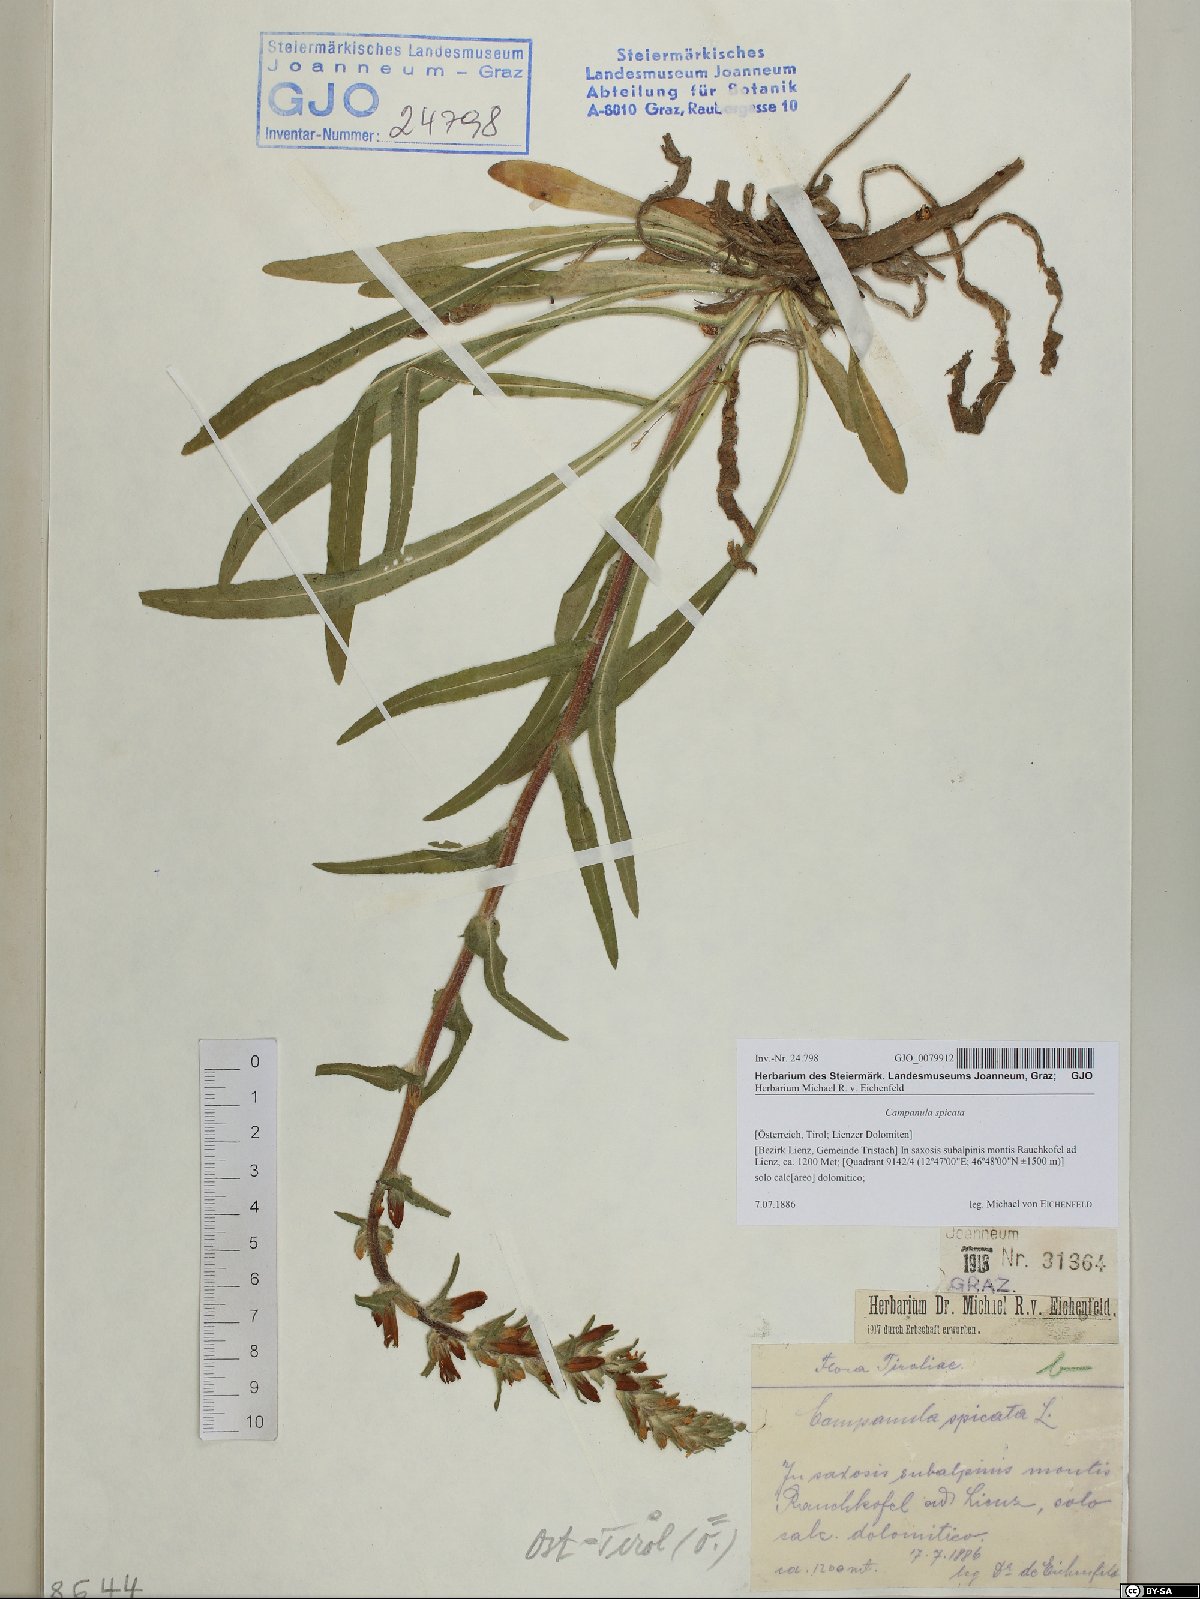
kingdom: Plantae
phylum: Tracheophyta
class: Magnoliopsida
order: Asterales
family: Campanulaceae
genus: Campanula
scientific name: Campanula spicata
